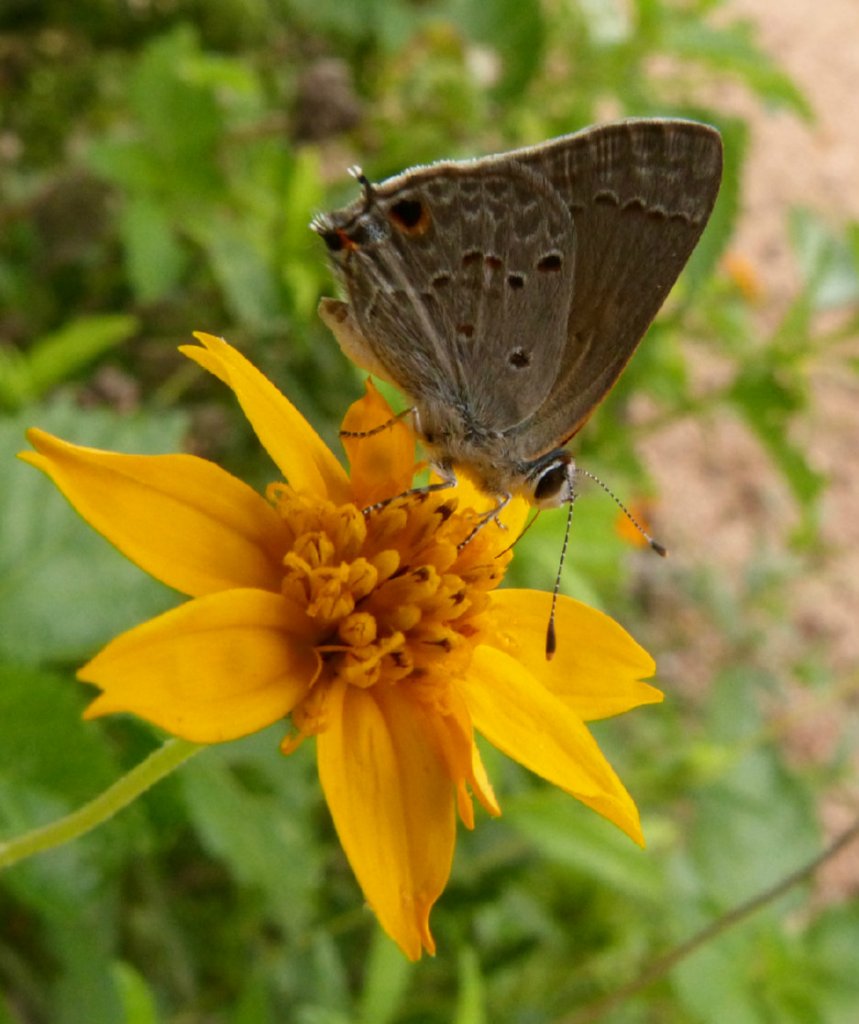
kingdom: Animalia
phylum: Arthropoda
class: Insecta
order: Lepidoptera
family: Lycaenidae
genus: Callicista
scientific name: Callicista columella
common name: Mallow Scrub-Hairstreak
